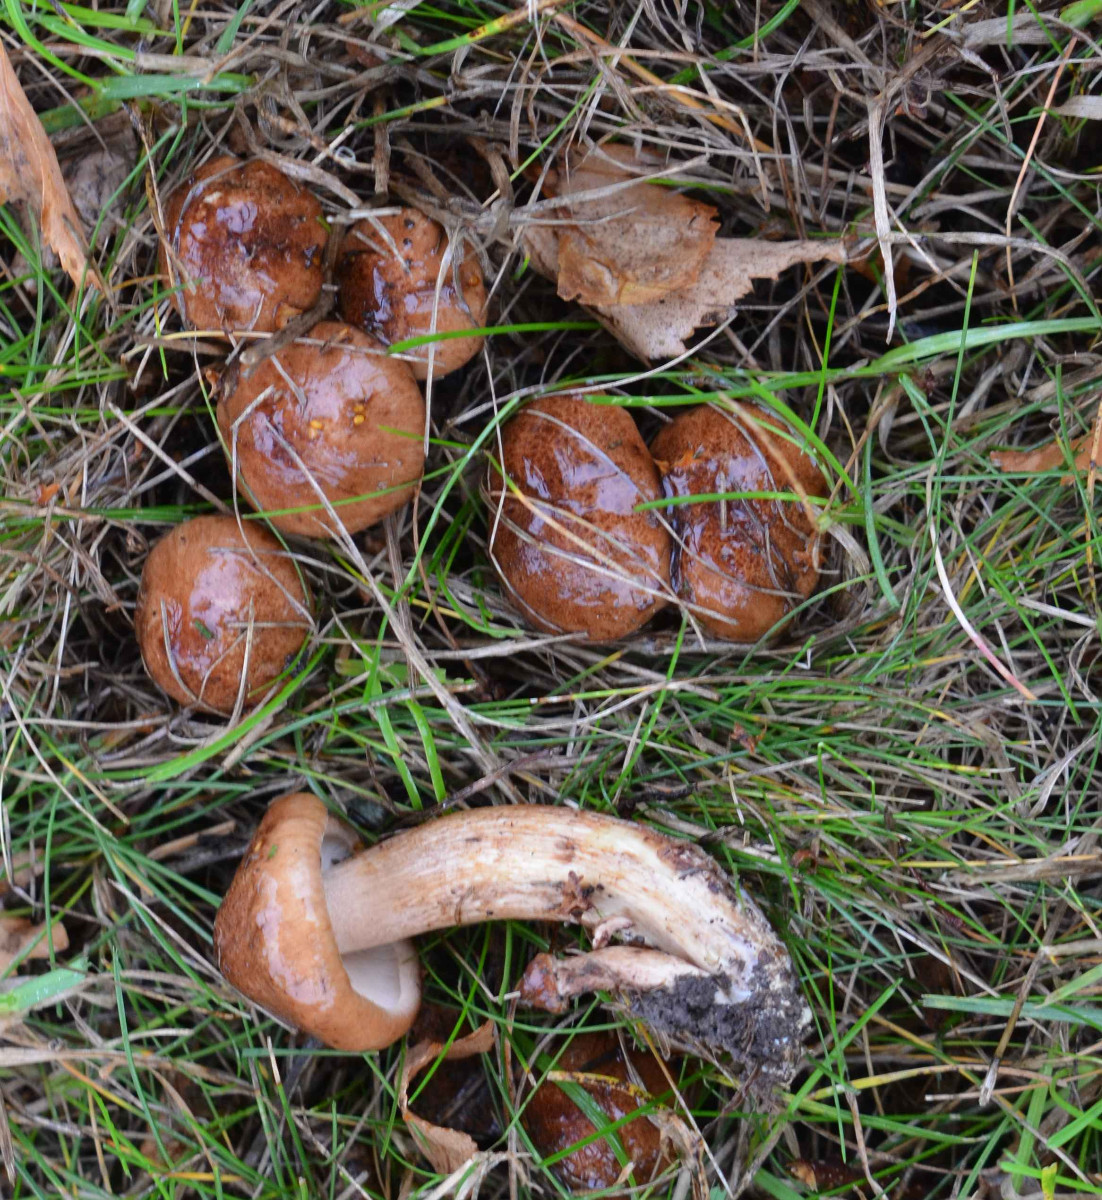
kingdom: Fungi
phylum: Basidiomycota
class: Agaricomycetes
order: Agaricales
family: Tricholomataceae
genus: Tricholoma
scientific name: Tricholoma fulvum
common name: birke-ridderhat
